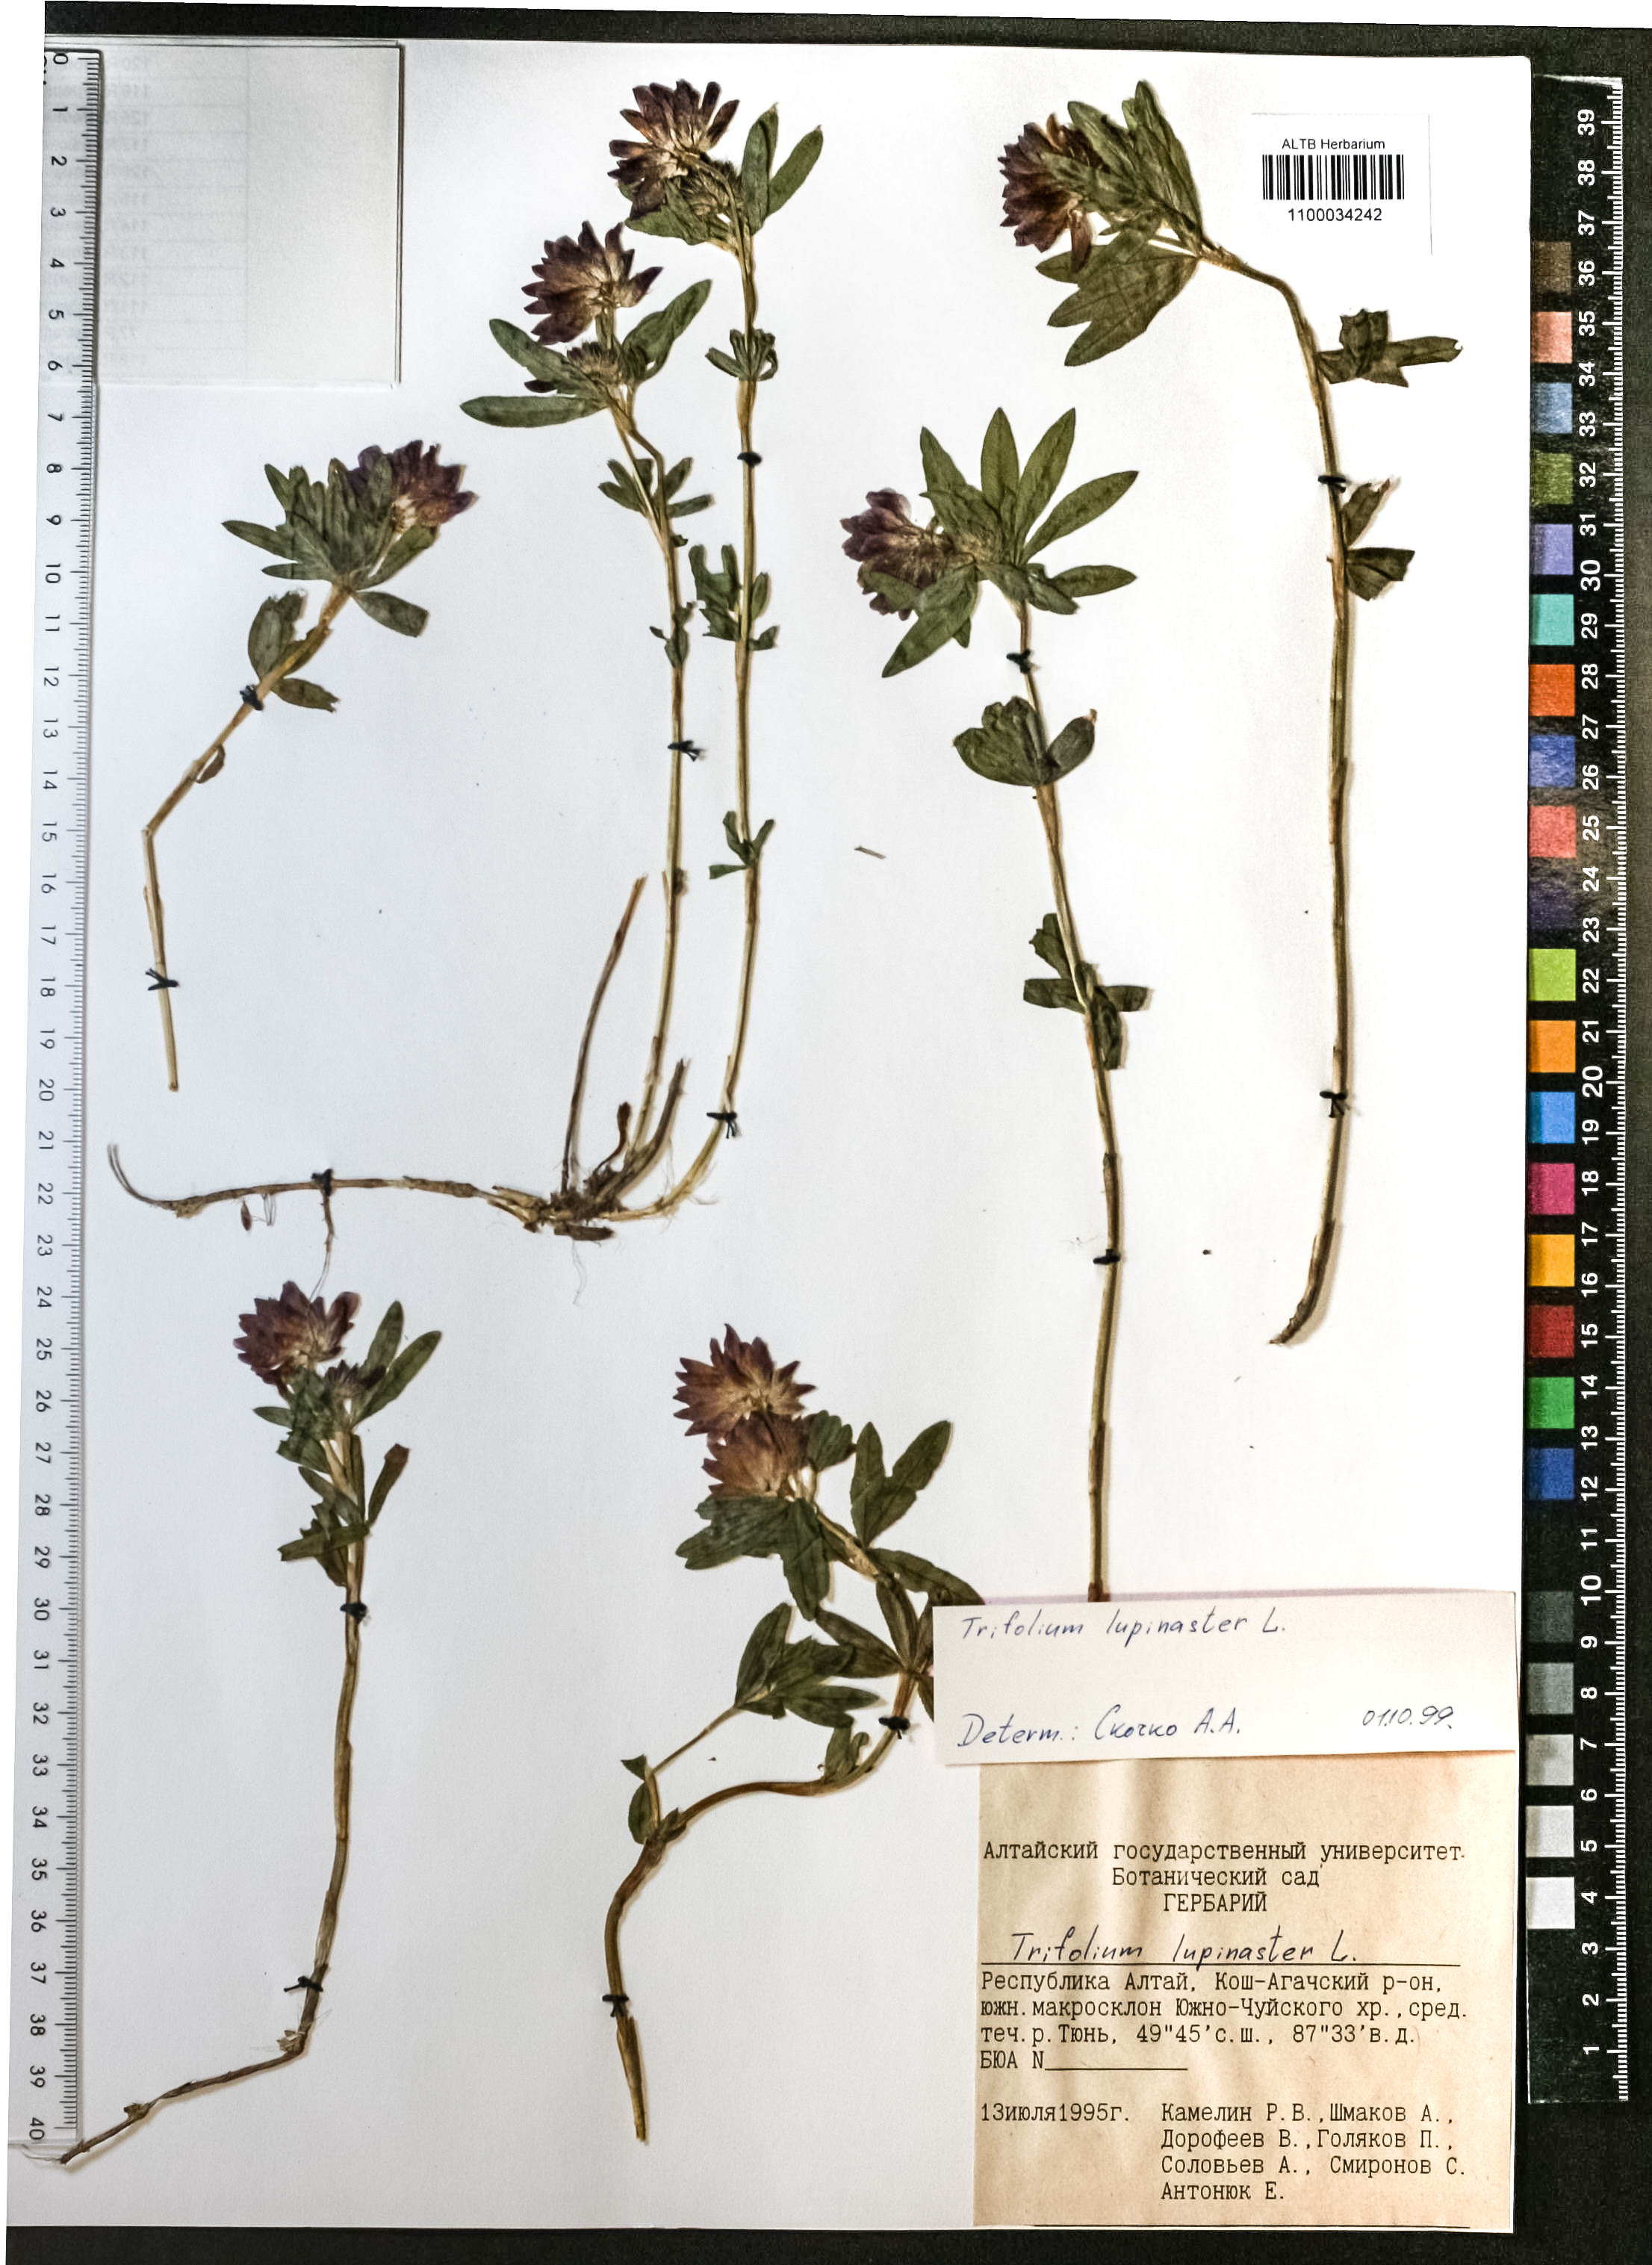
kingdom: Plantae
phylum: Tracheophyta
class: Magnoliopsida
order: Fabales
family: Fabaceae
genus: Trifolium
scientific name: Trifolium lupinaster
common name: Lupine clover
